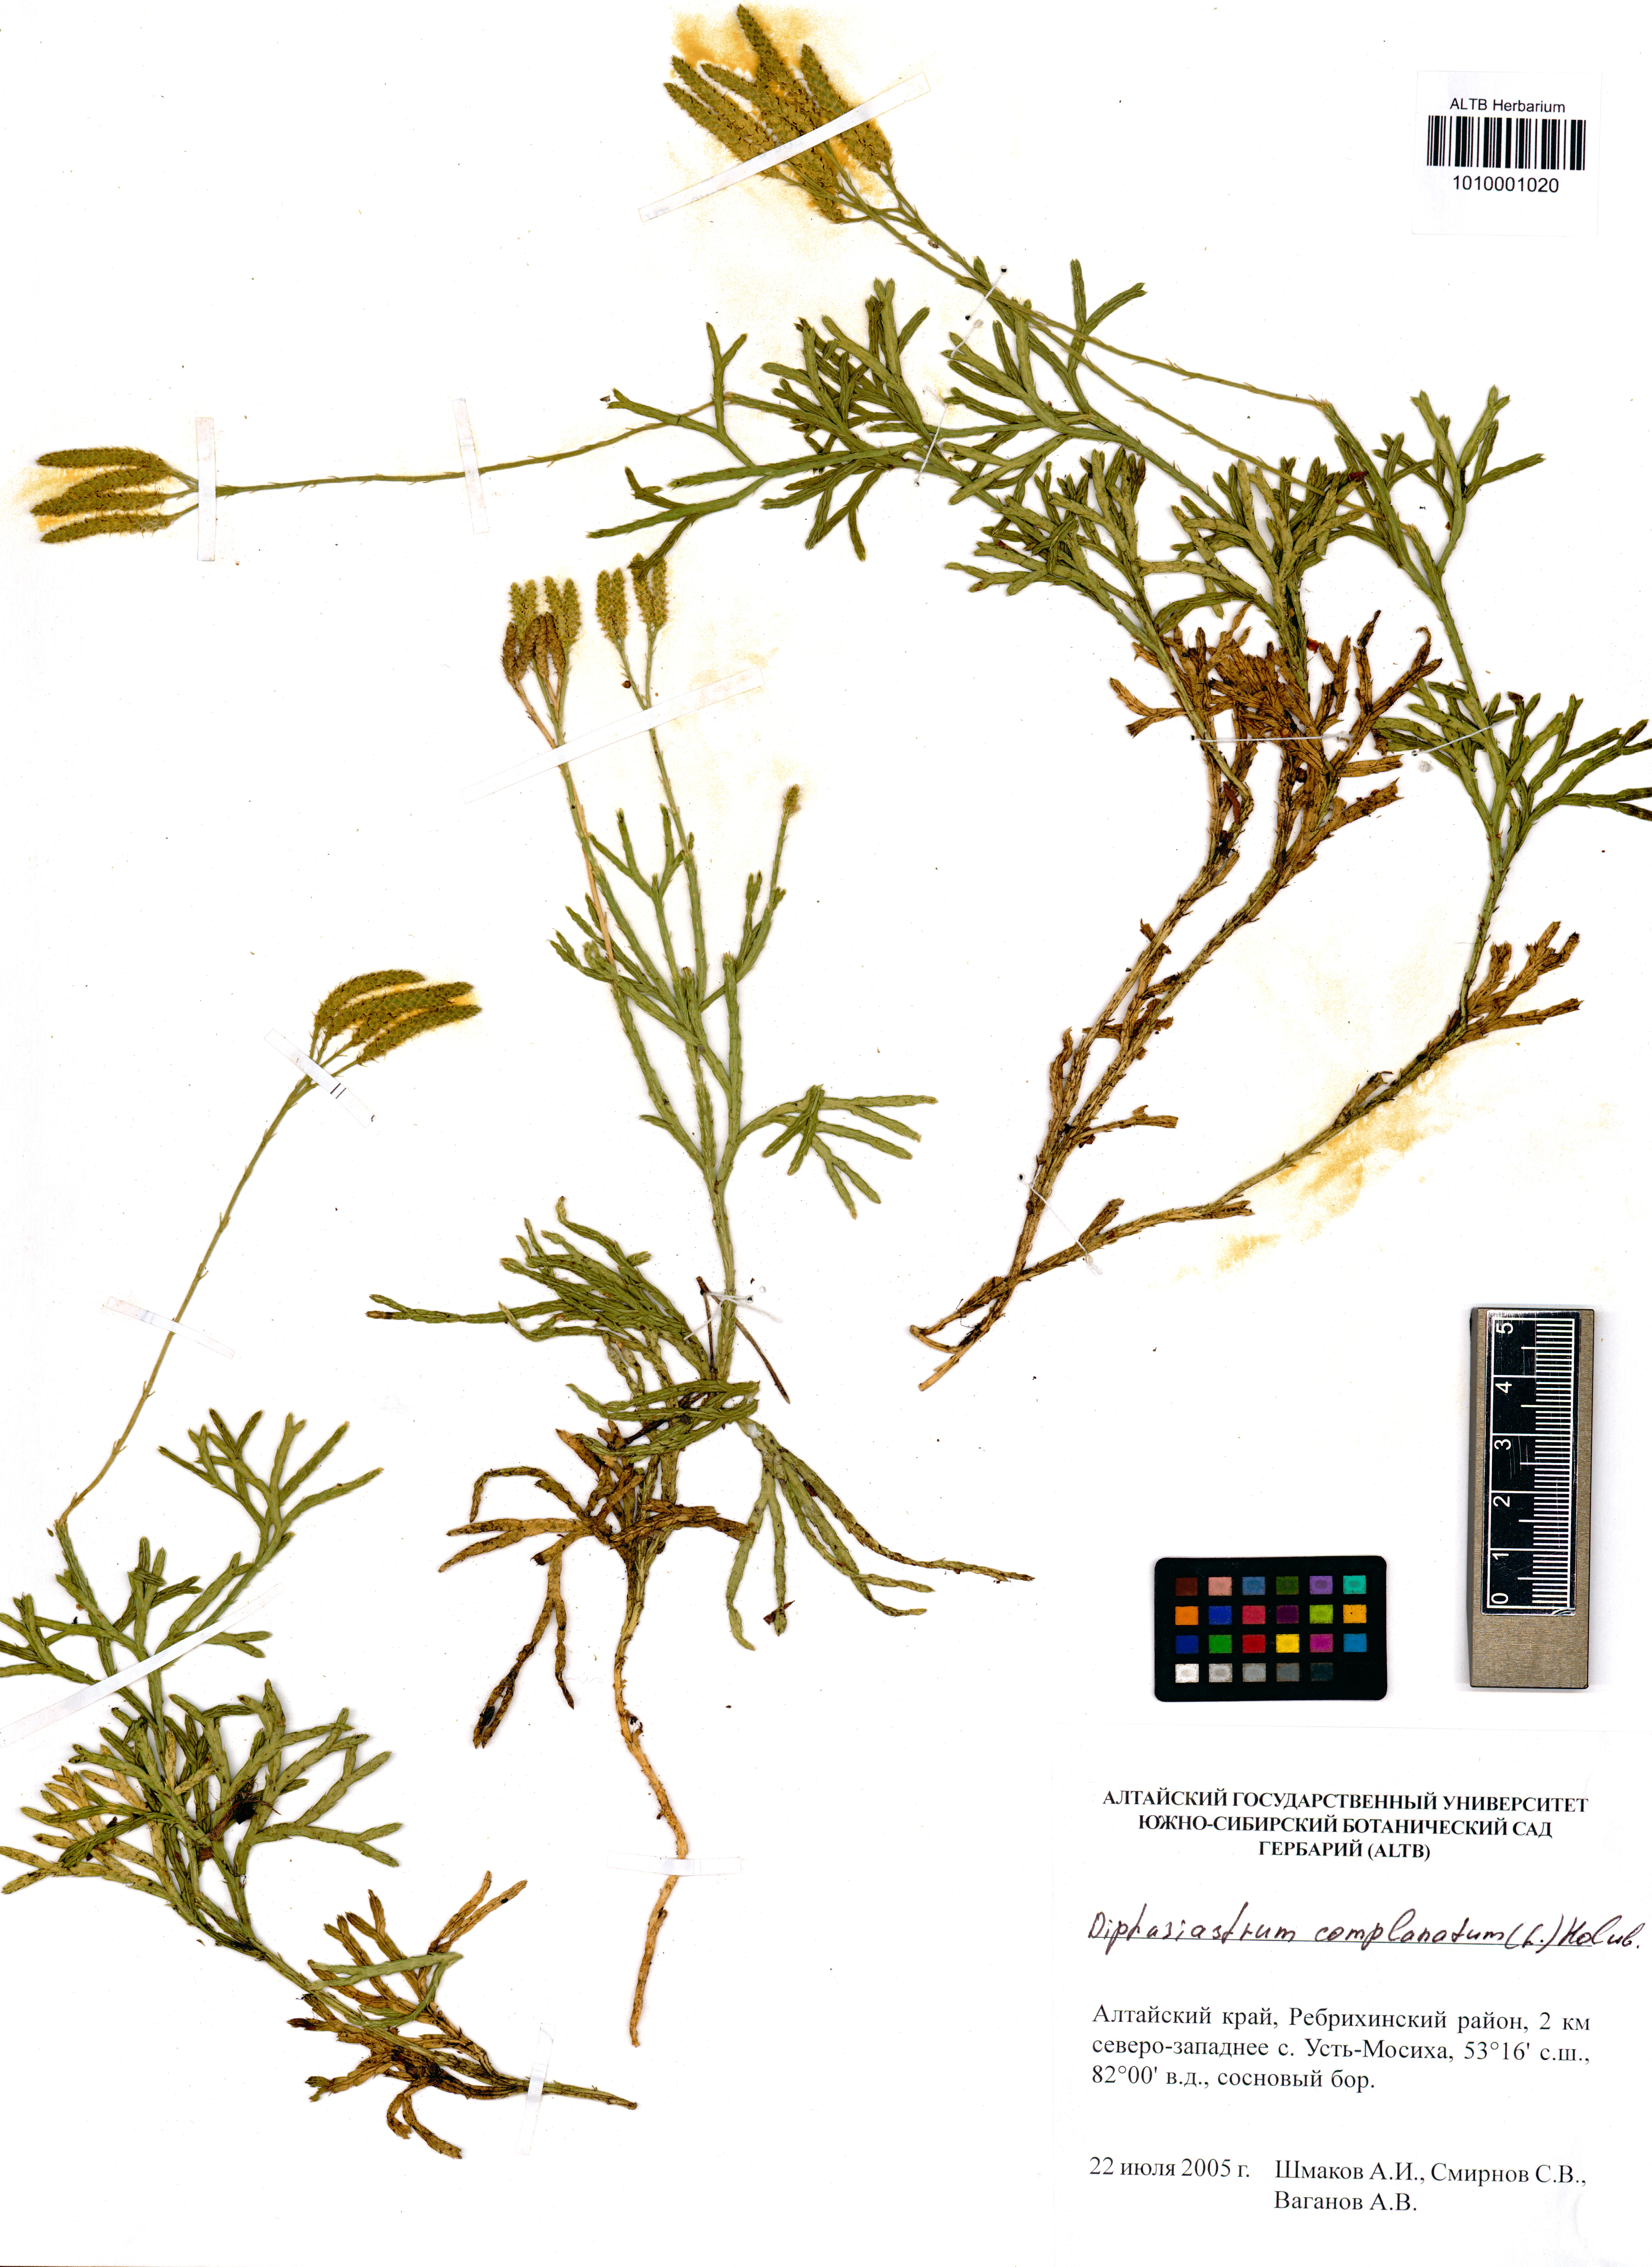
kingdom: Plantae
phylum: Tracheophyta
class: Lycopodiopsida
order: Lycopodiales
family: Lycopodiaceae
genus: Diphasiastrum
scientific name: Diphasiastrum complanatum
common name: Northern running-pine
